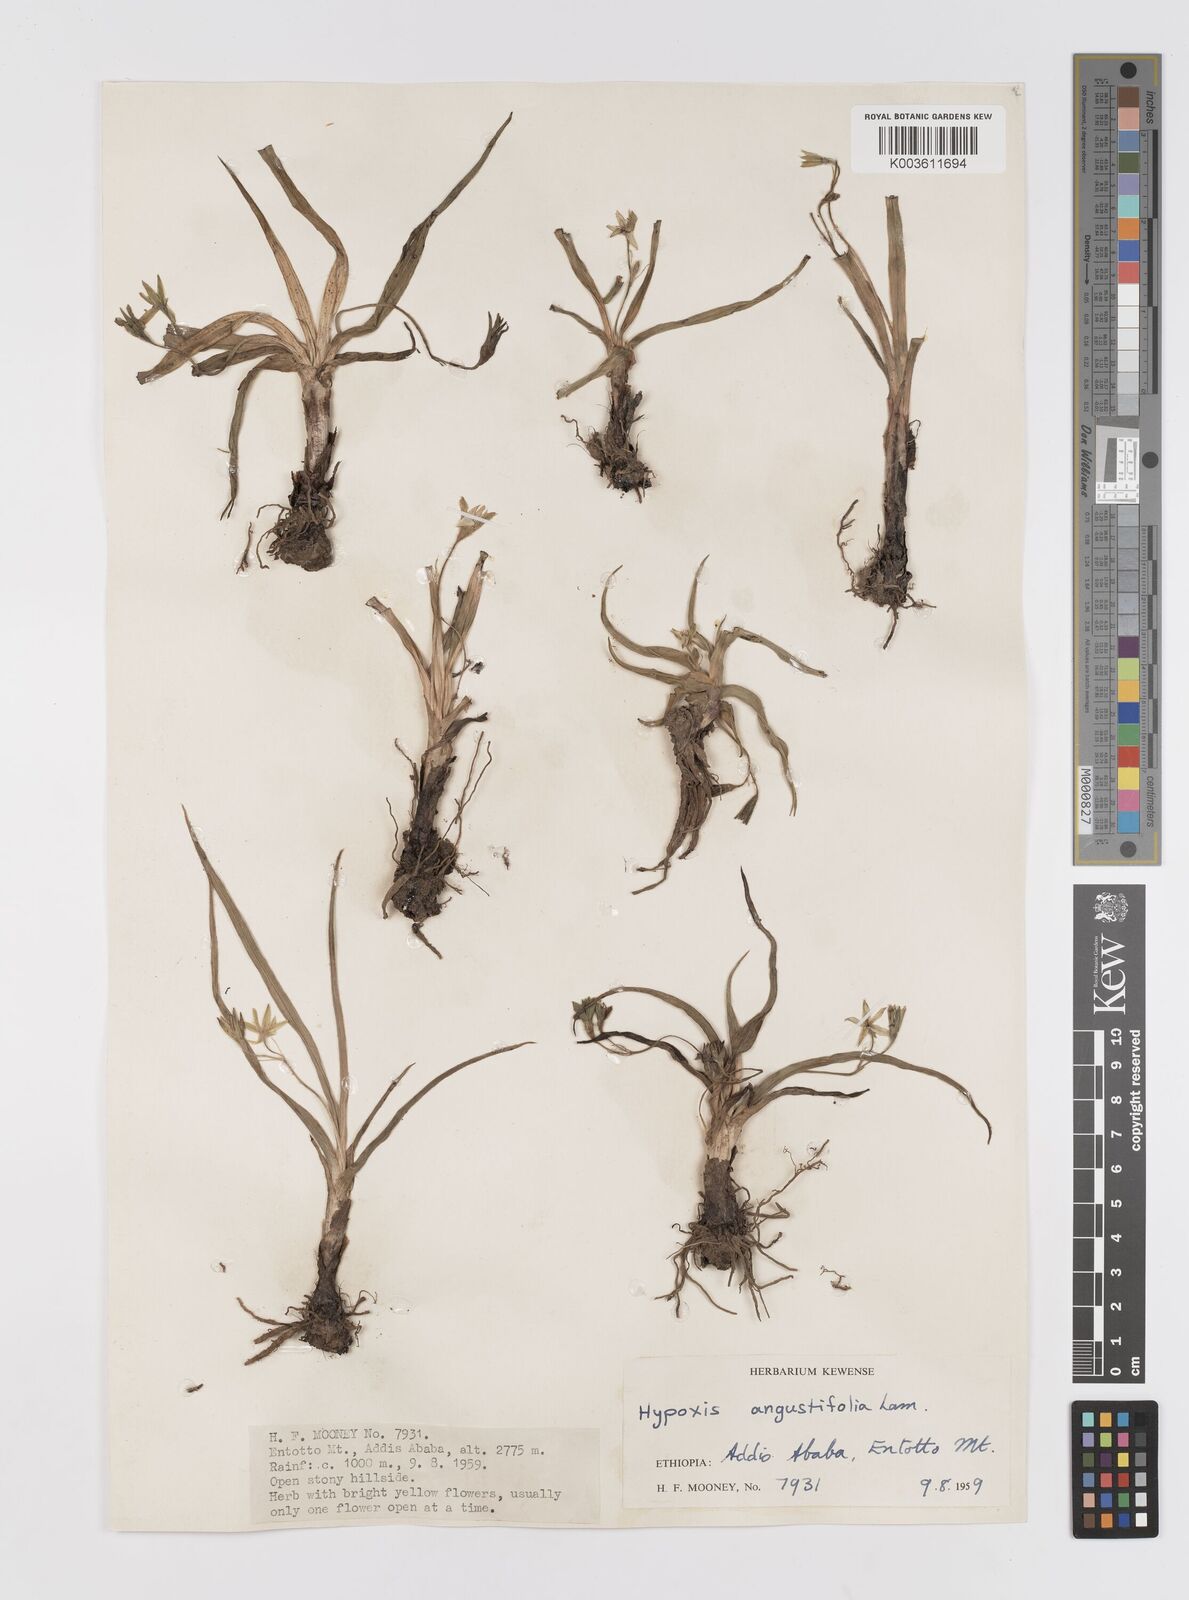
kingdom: Plantae
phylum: Tracheophyta
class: Liliopsida
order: Asparagales
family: Hypoxidaceae
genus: Hypoxis
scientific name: Hypoxis
